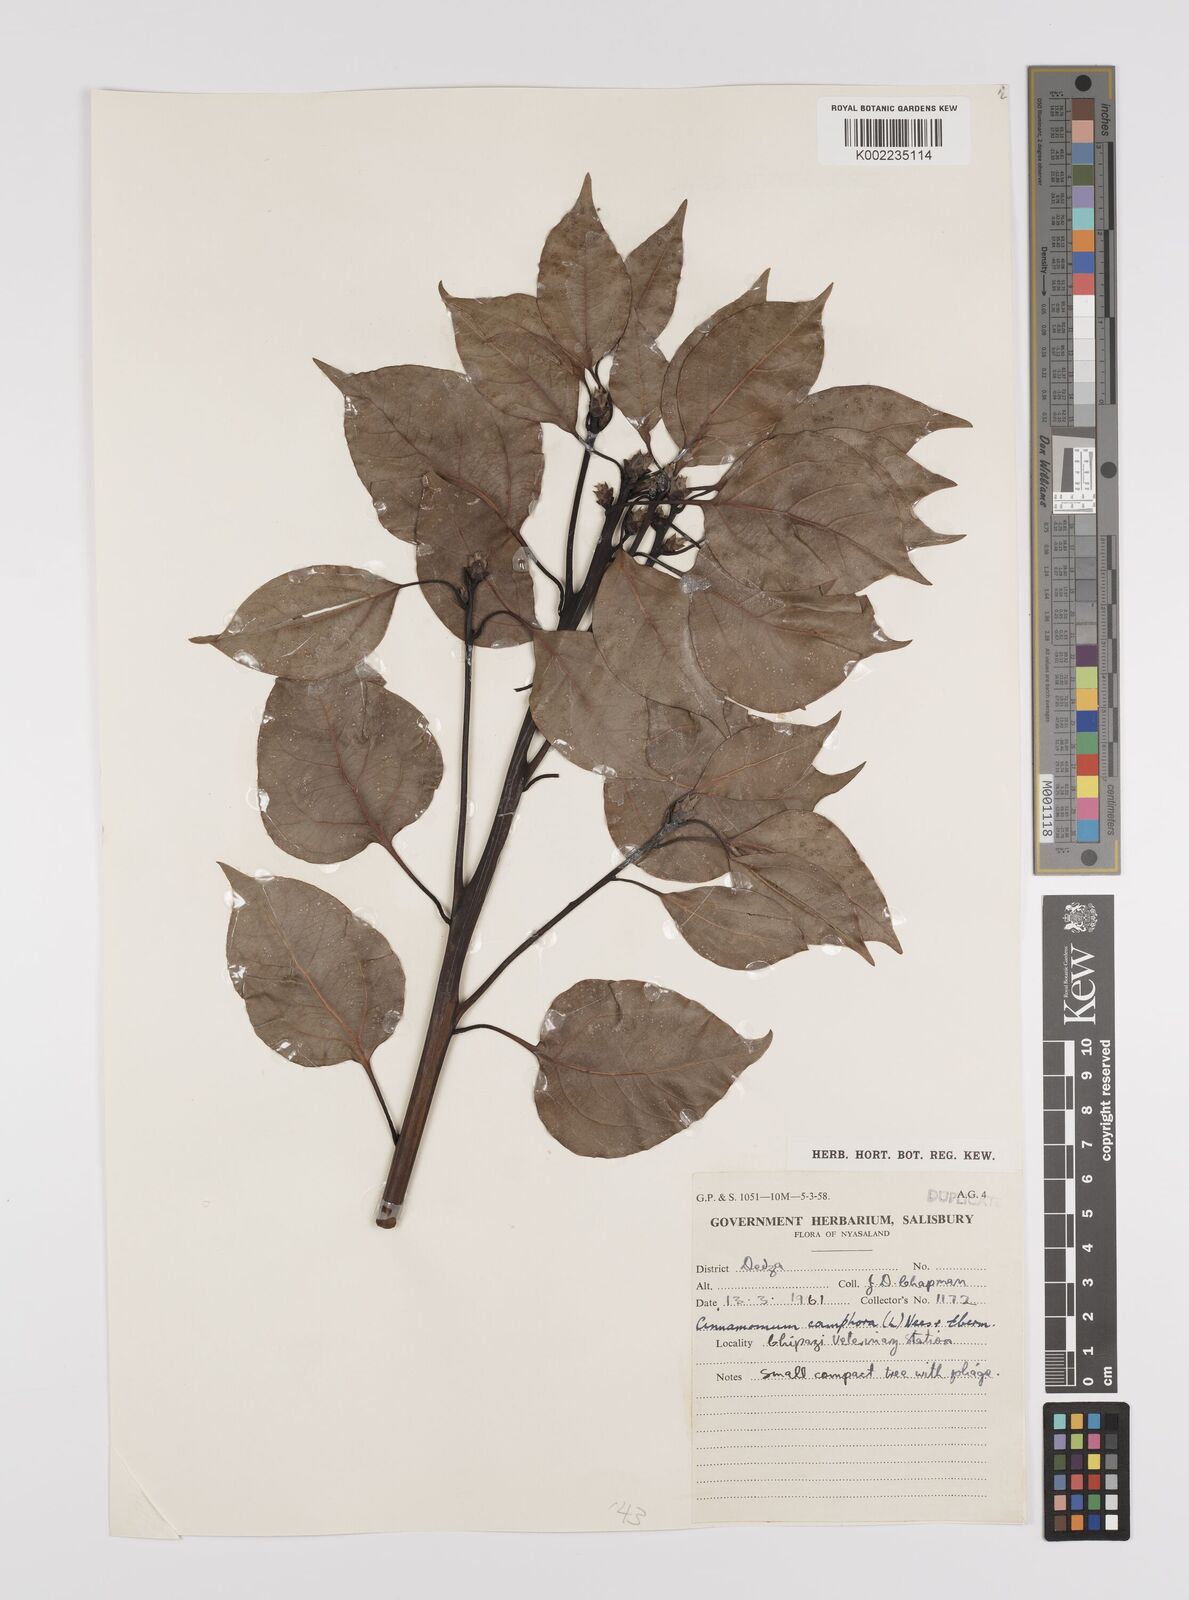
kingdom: Plantae
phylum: Tracheophyta
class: Magnoliopsida
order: Laurales
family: Lauraceae
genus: Cinnamomum
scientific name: Cinnamomum camphora
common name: Camphortree
